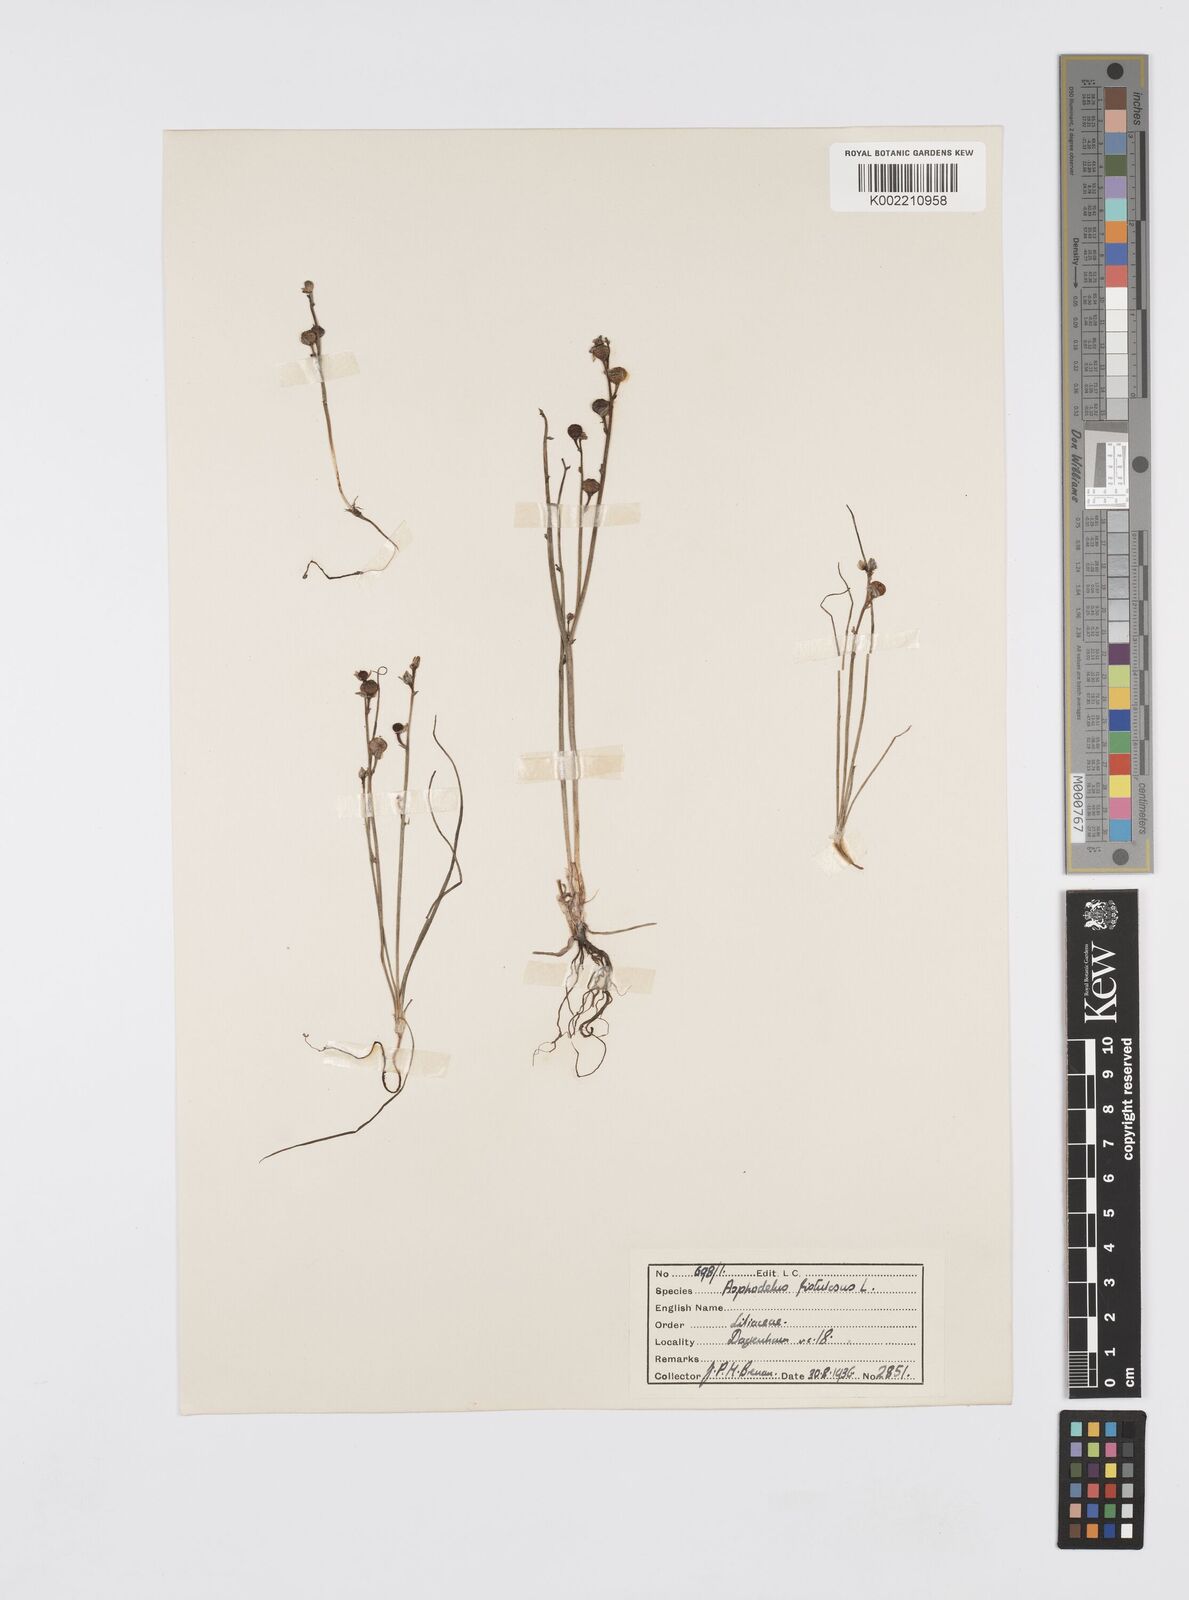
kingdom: Plantae
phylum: Tracheophyta
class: Liliopsida
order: Asparagales
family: Asphodelaceae
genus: Asphodelus
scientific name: Asphodelus fistulosus
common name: Onionweed
